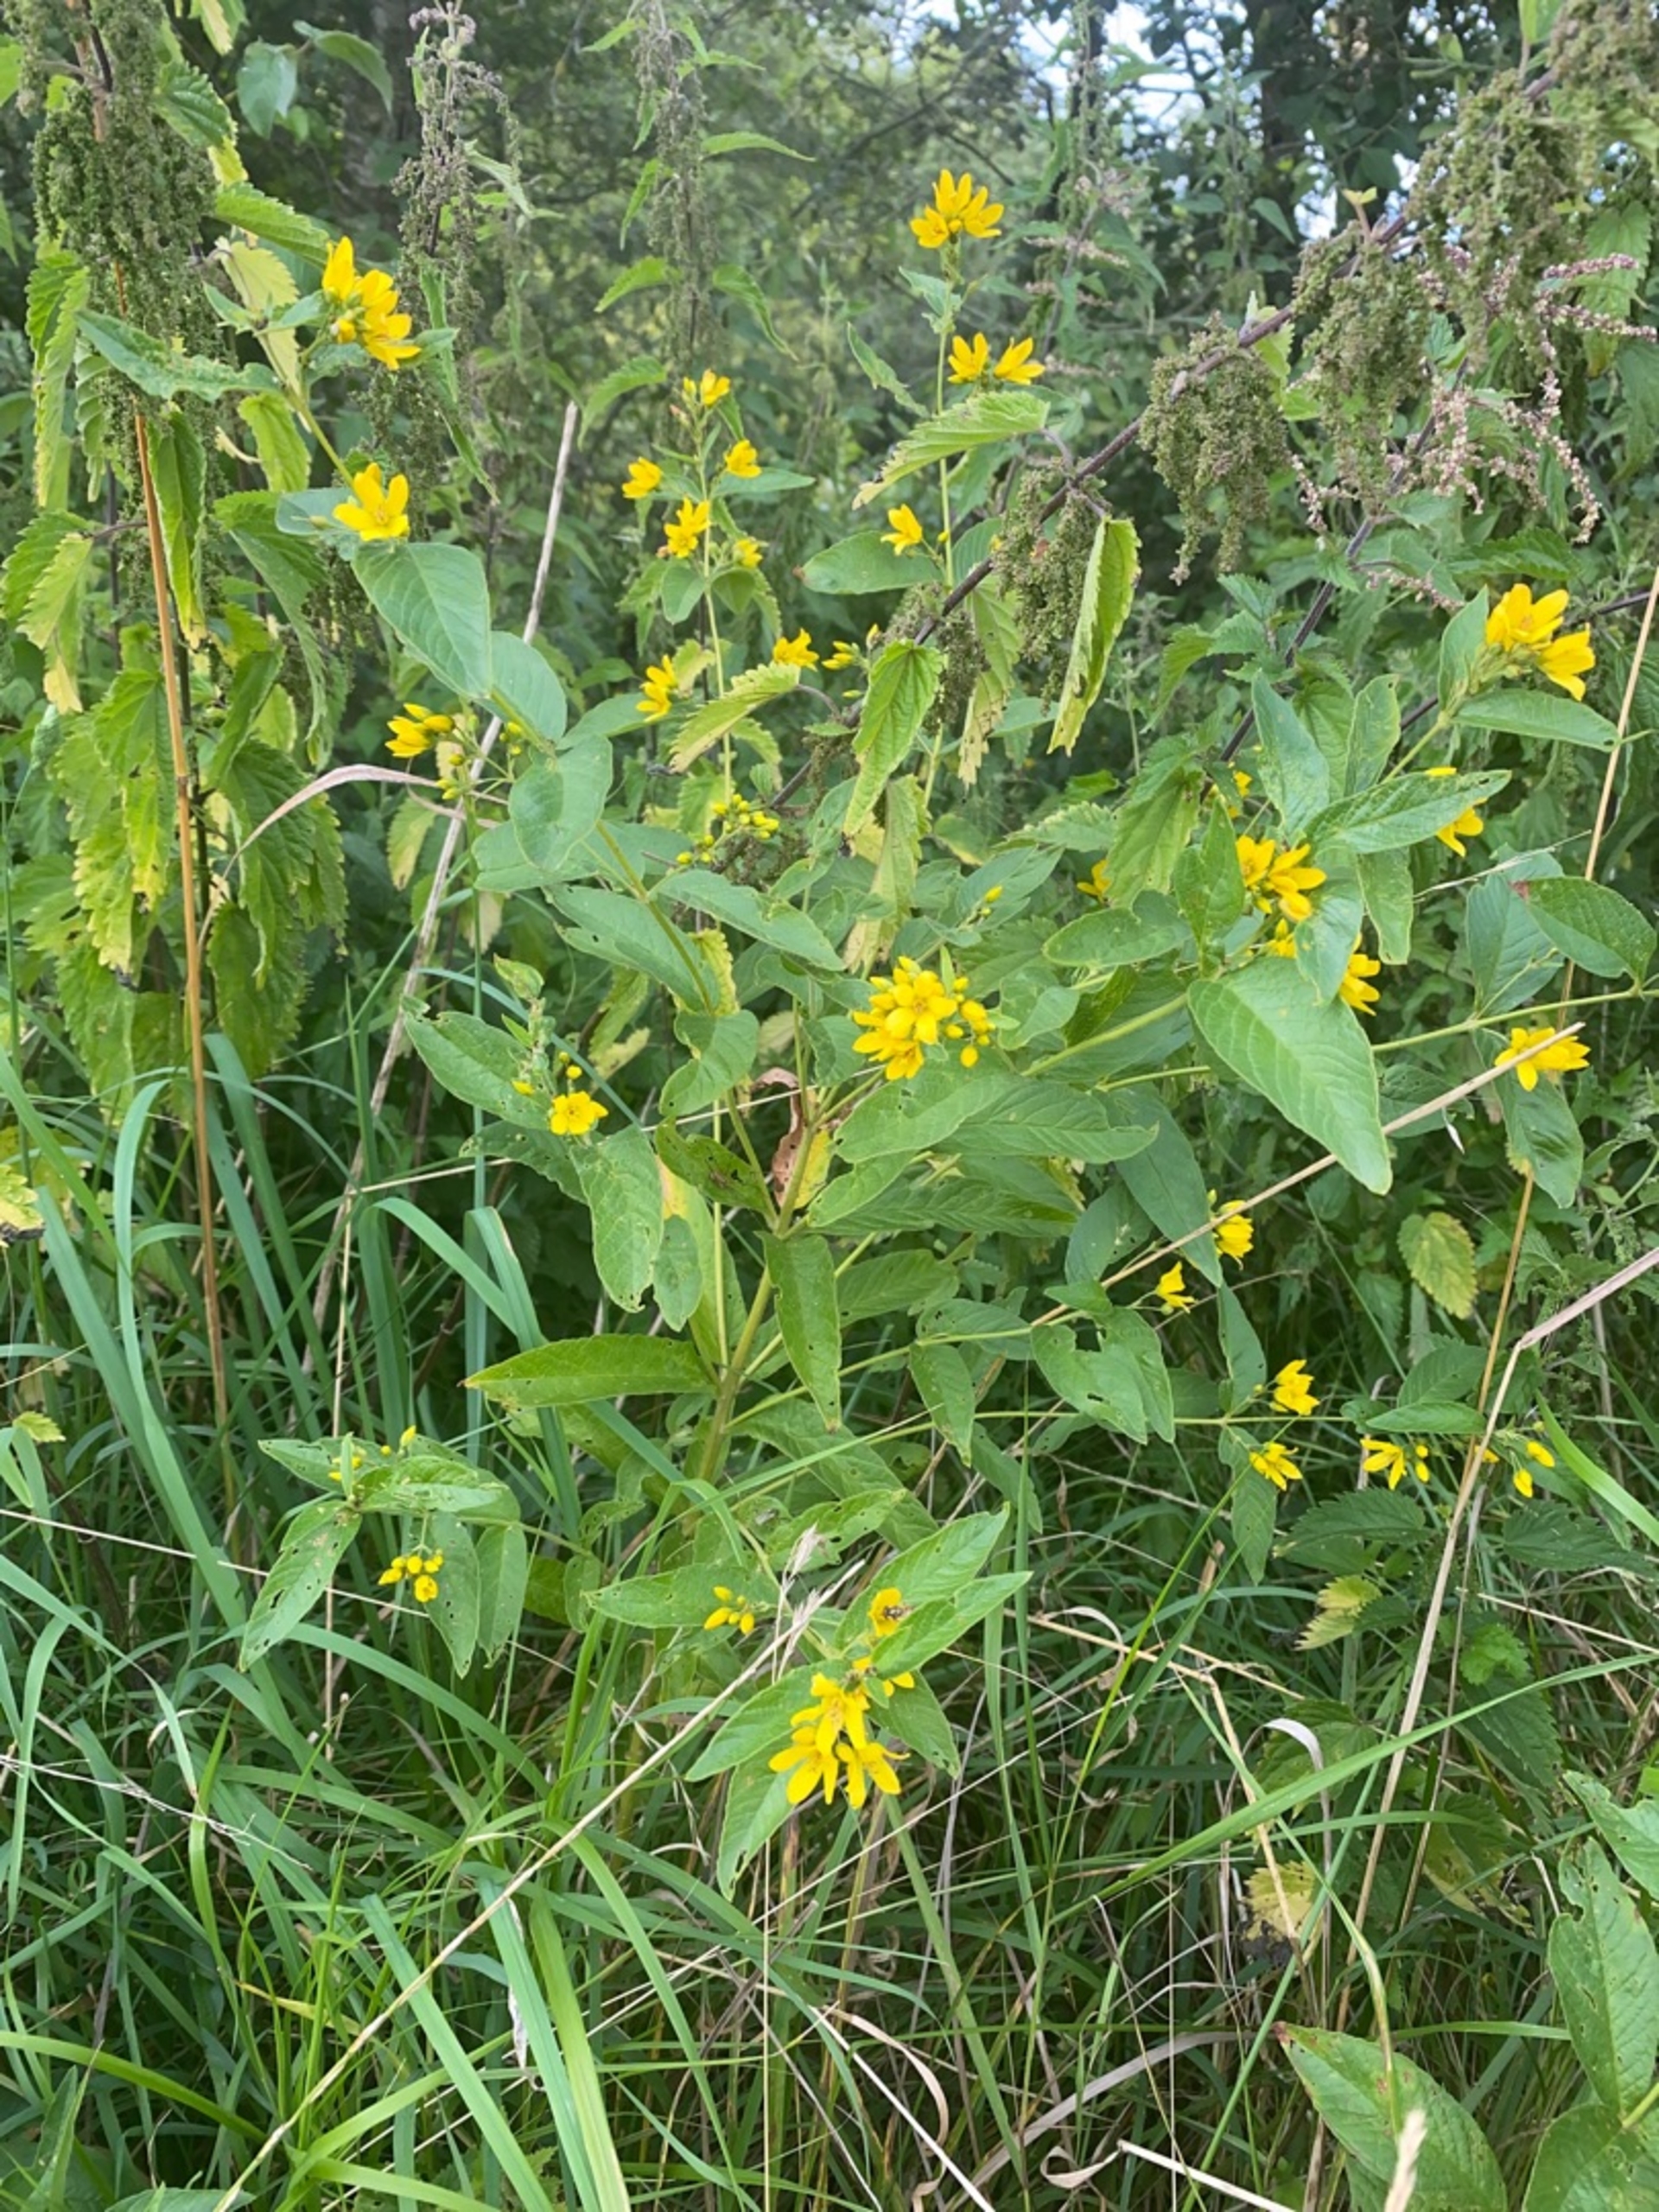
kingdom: Plantae
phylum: Tracheophyta
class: Magnoliopsida
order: Ericales
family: Primulaceae
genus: Lysimachia
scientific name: Lysimachia vulgaris
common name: Almindelig fredløs
